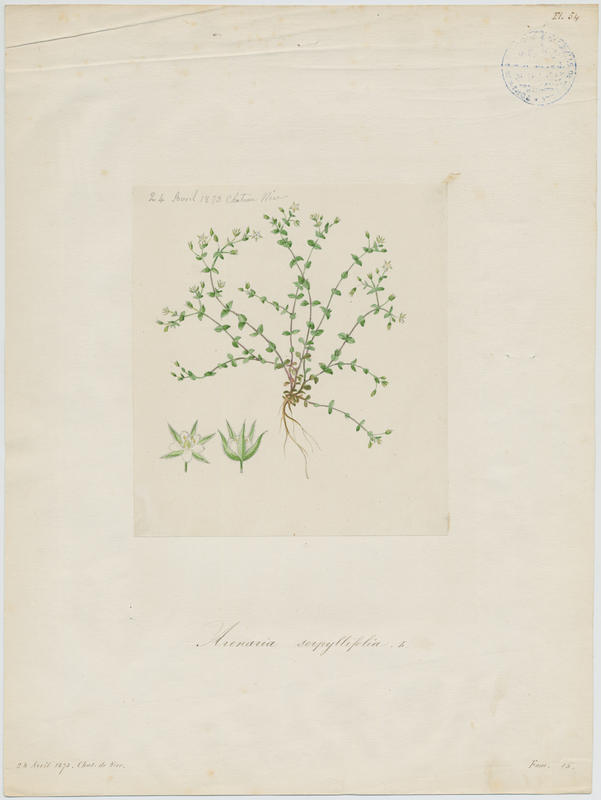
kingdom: Plantae
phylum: Tracheophyta
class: Magnoliopsida
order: Caryophyllales
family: Caryophyllaceae
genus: Arenaria
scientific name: Arenaria serpyllifolia
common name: Thyme-leaved sandwort
